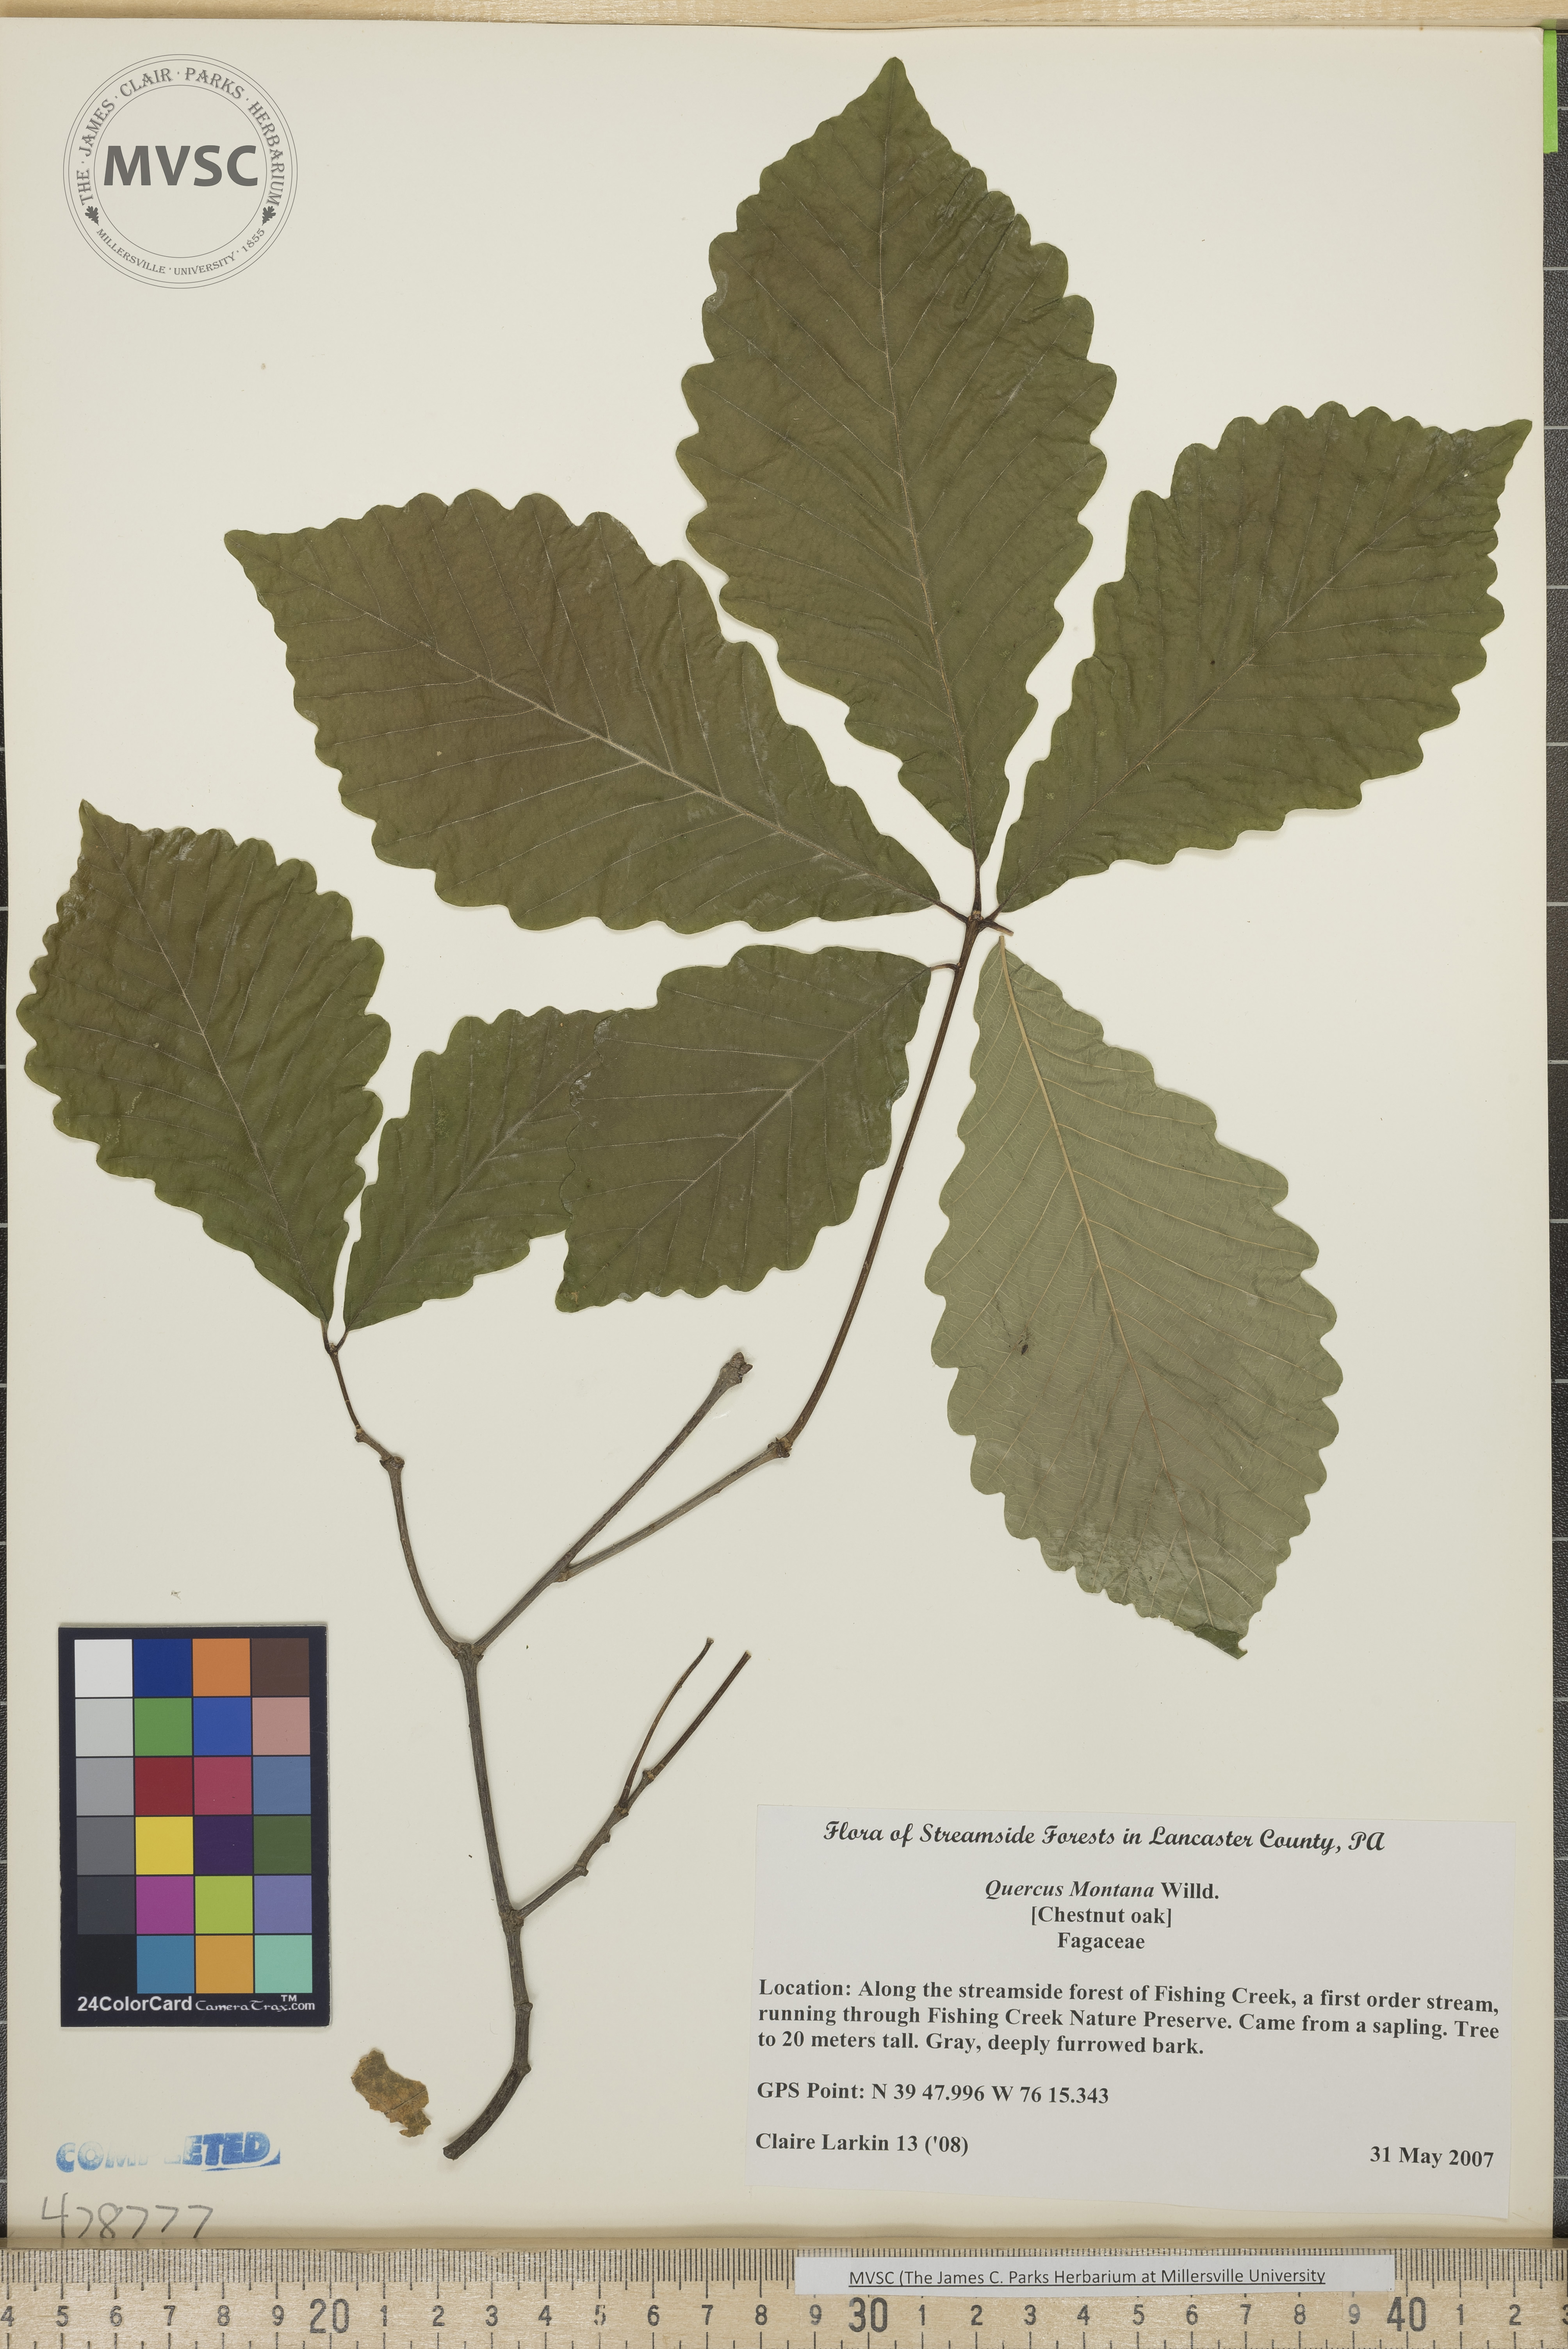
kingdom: Plantae
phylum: Tracheophyta
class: Magnoliopsida
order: Fagales
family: Fagaceae
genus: Quercus
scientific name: Quercus montana
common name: Chestnut oak
